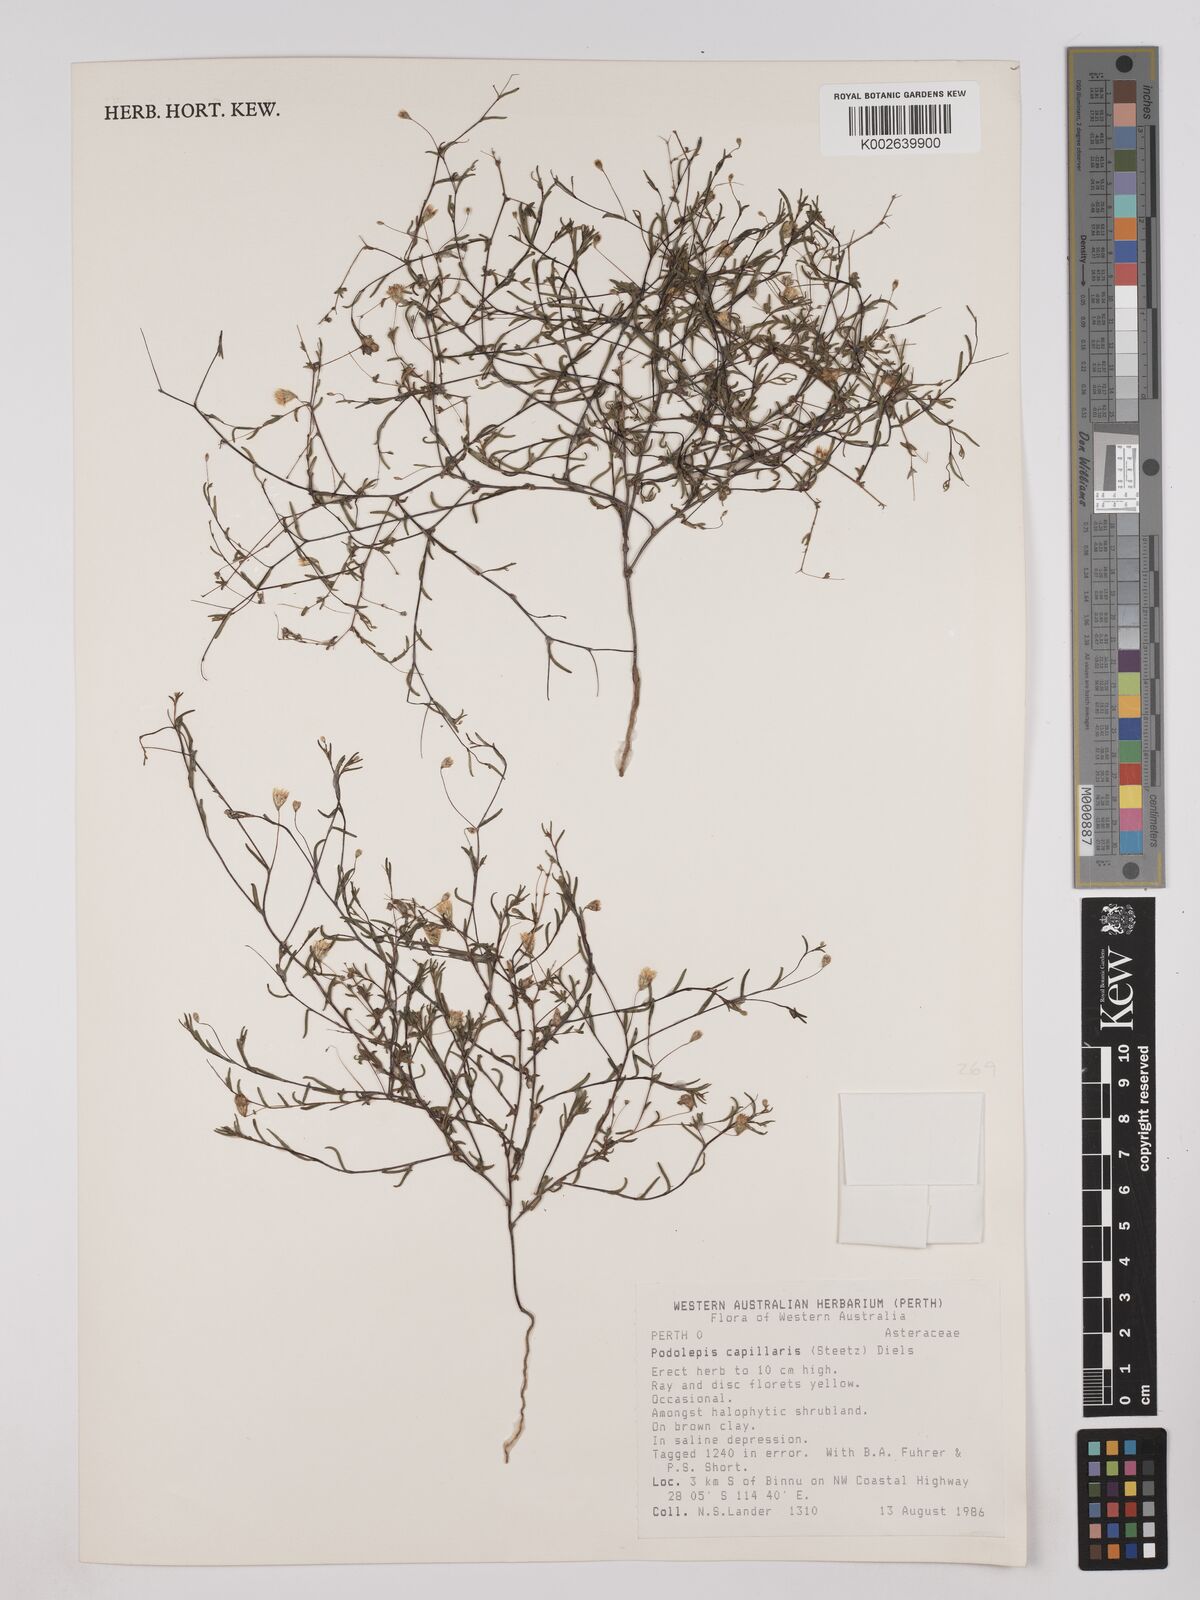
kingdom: Plantae
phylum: Tracheophyta
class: Magnoliopsida
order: Asterales
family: Asteraceae
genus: Siemssenia
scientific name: Siemssenia capillaris
